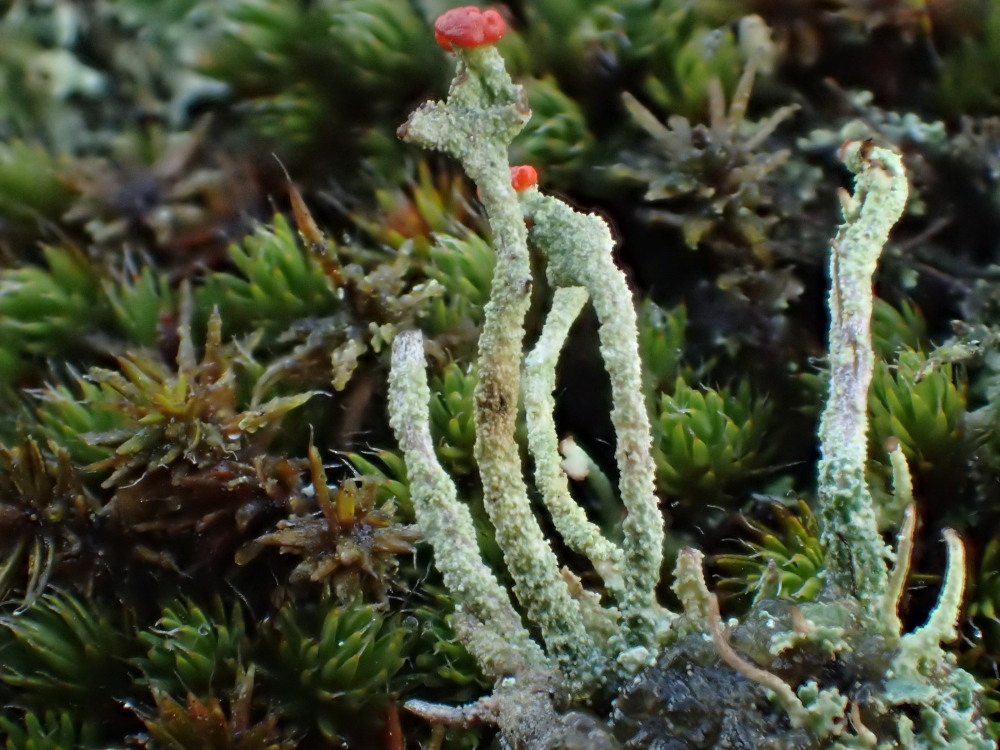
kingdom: Fungi
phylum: Ascomycota
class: Lecanoromycetes
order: Lecanorales
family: Cladoniaceae
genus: Cladonia
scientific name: Cladonia floerkeana
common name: lakrød bægerlav
